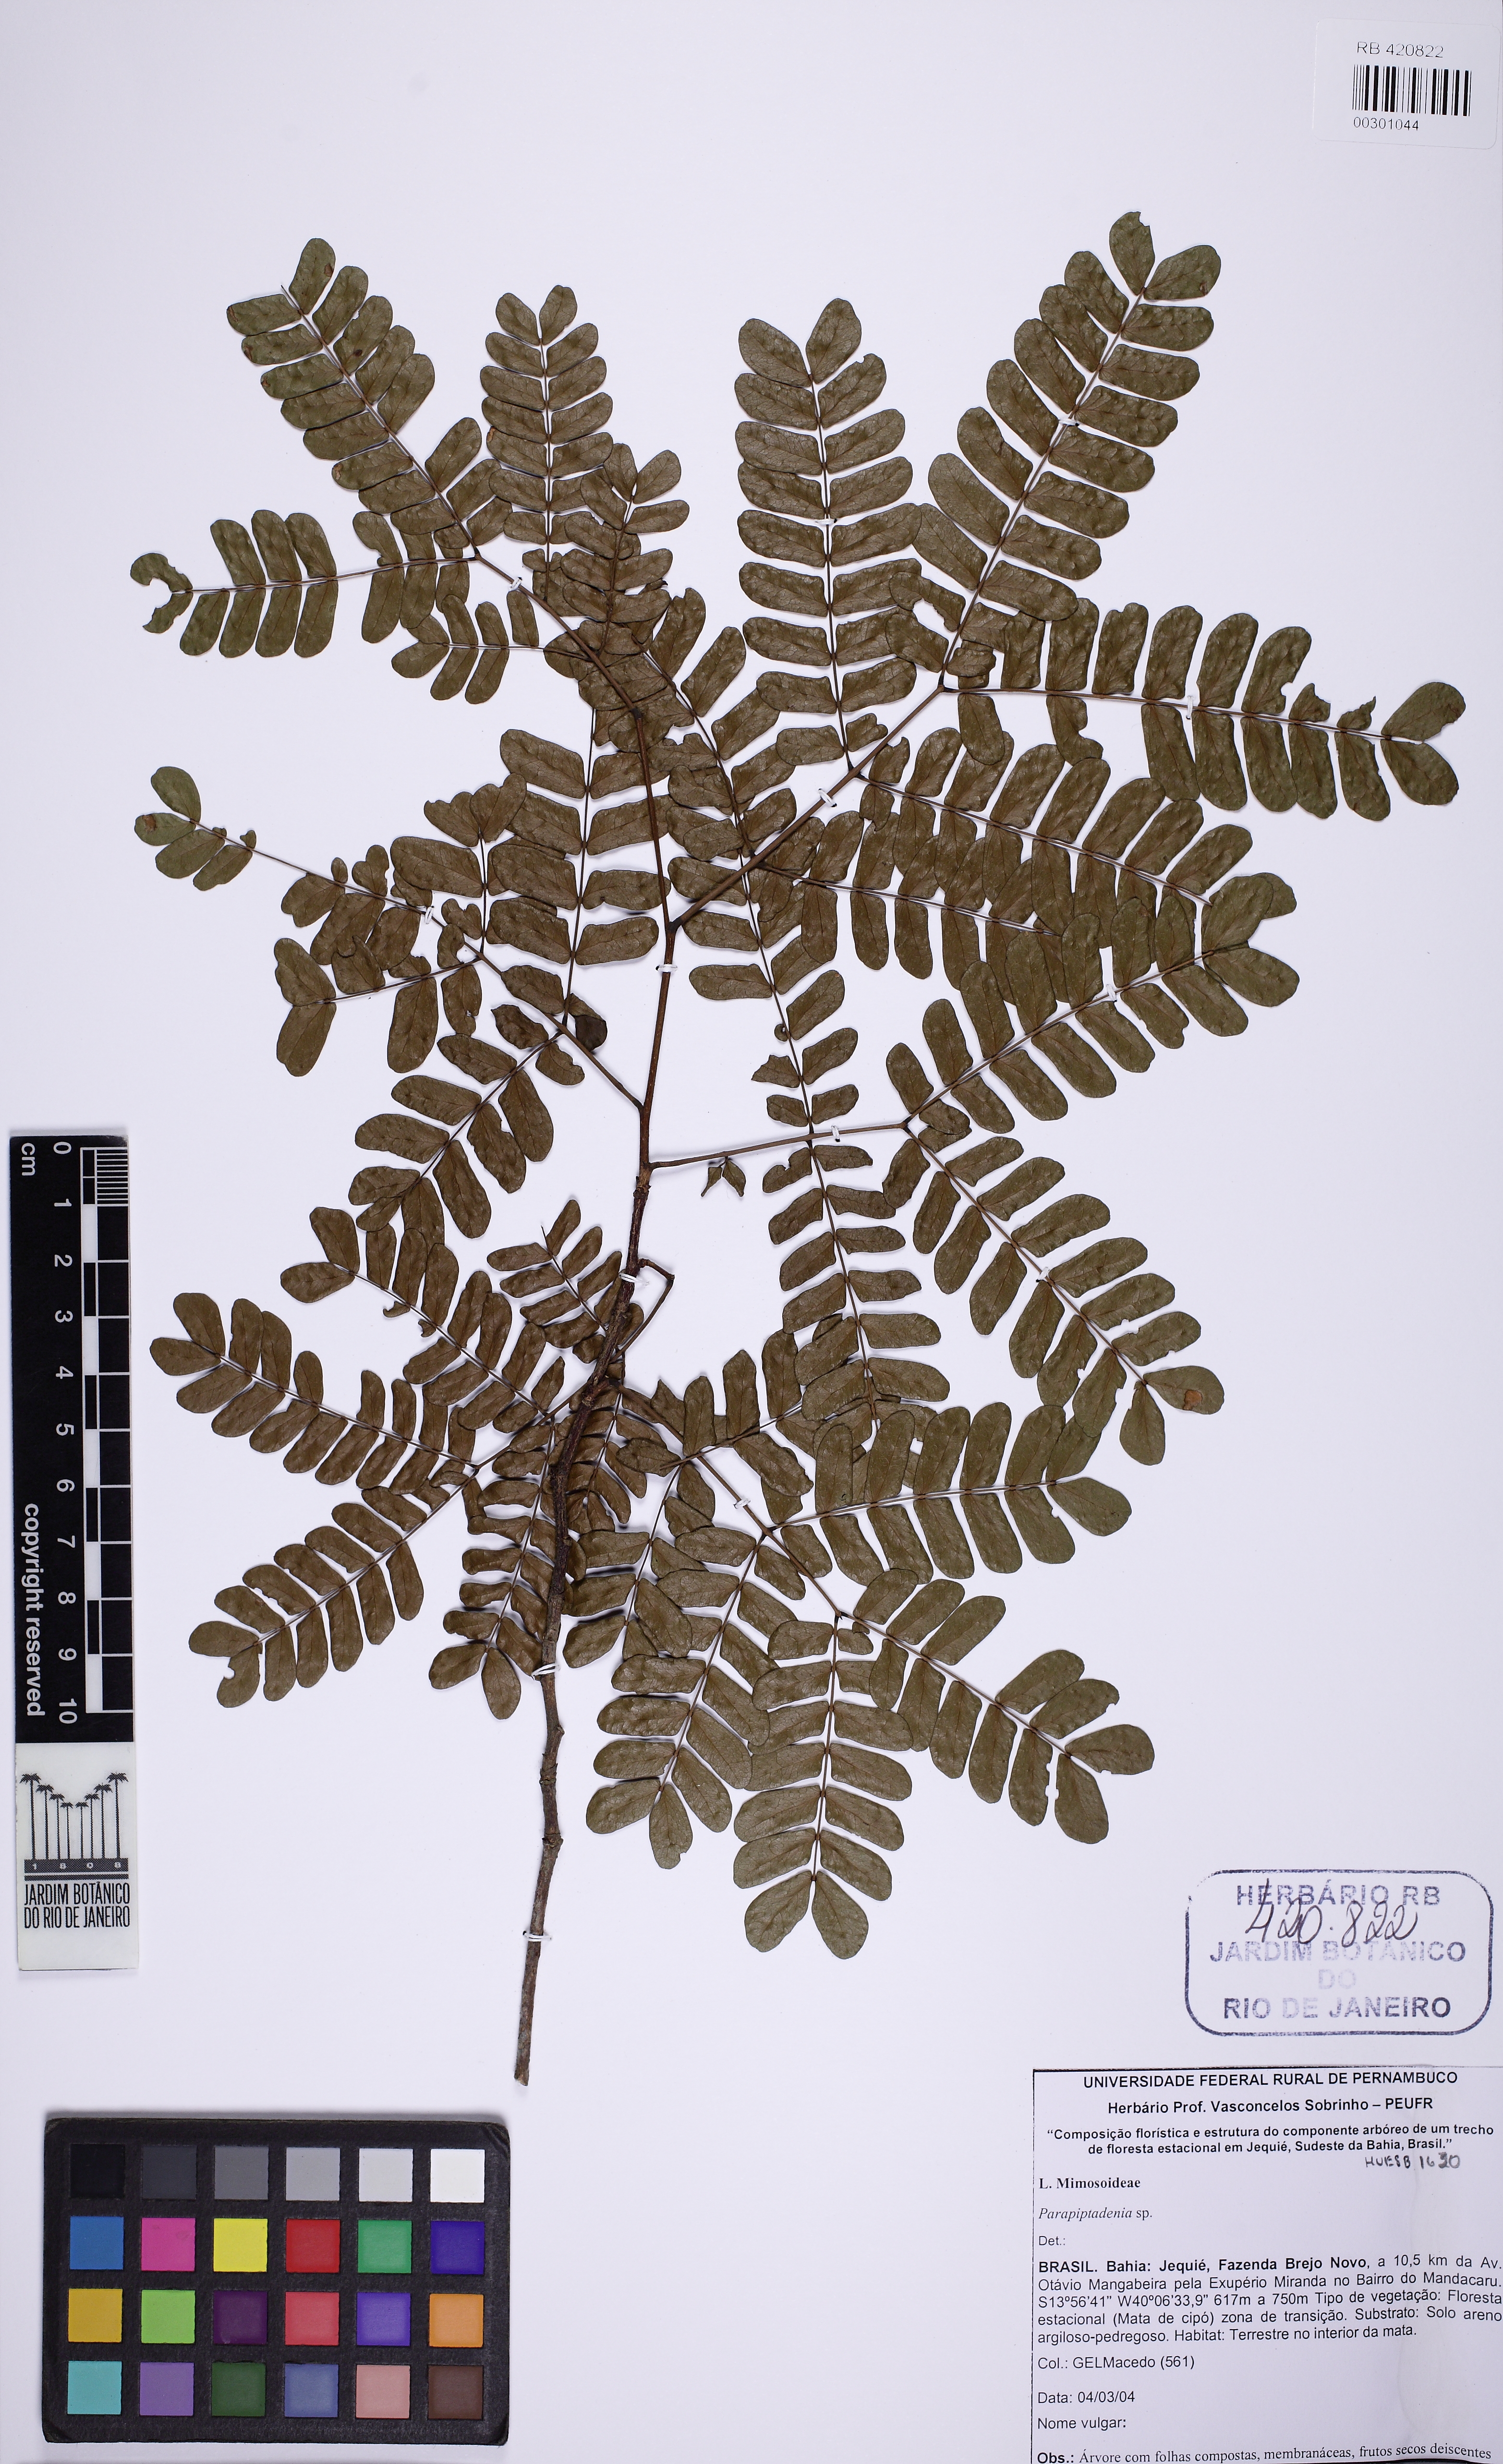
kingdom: Plantae
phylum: Tracheophyta
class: Magnoliopsida
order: Fabales
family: Fabaceae
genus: Pseudopiptadenia
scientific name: Pseudopiptadenia bahiana
